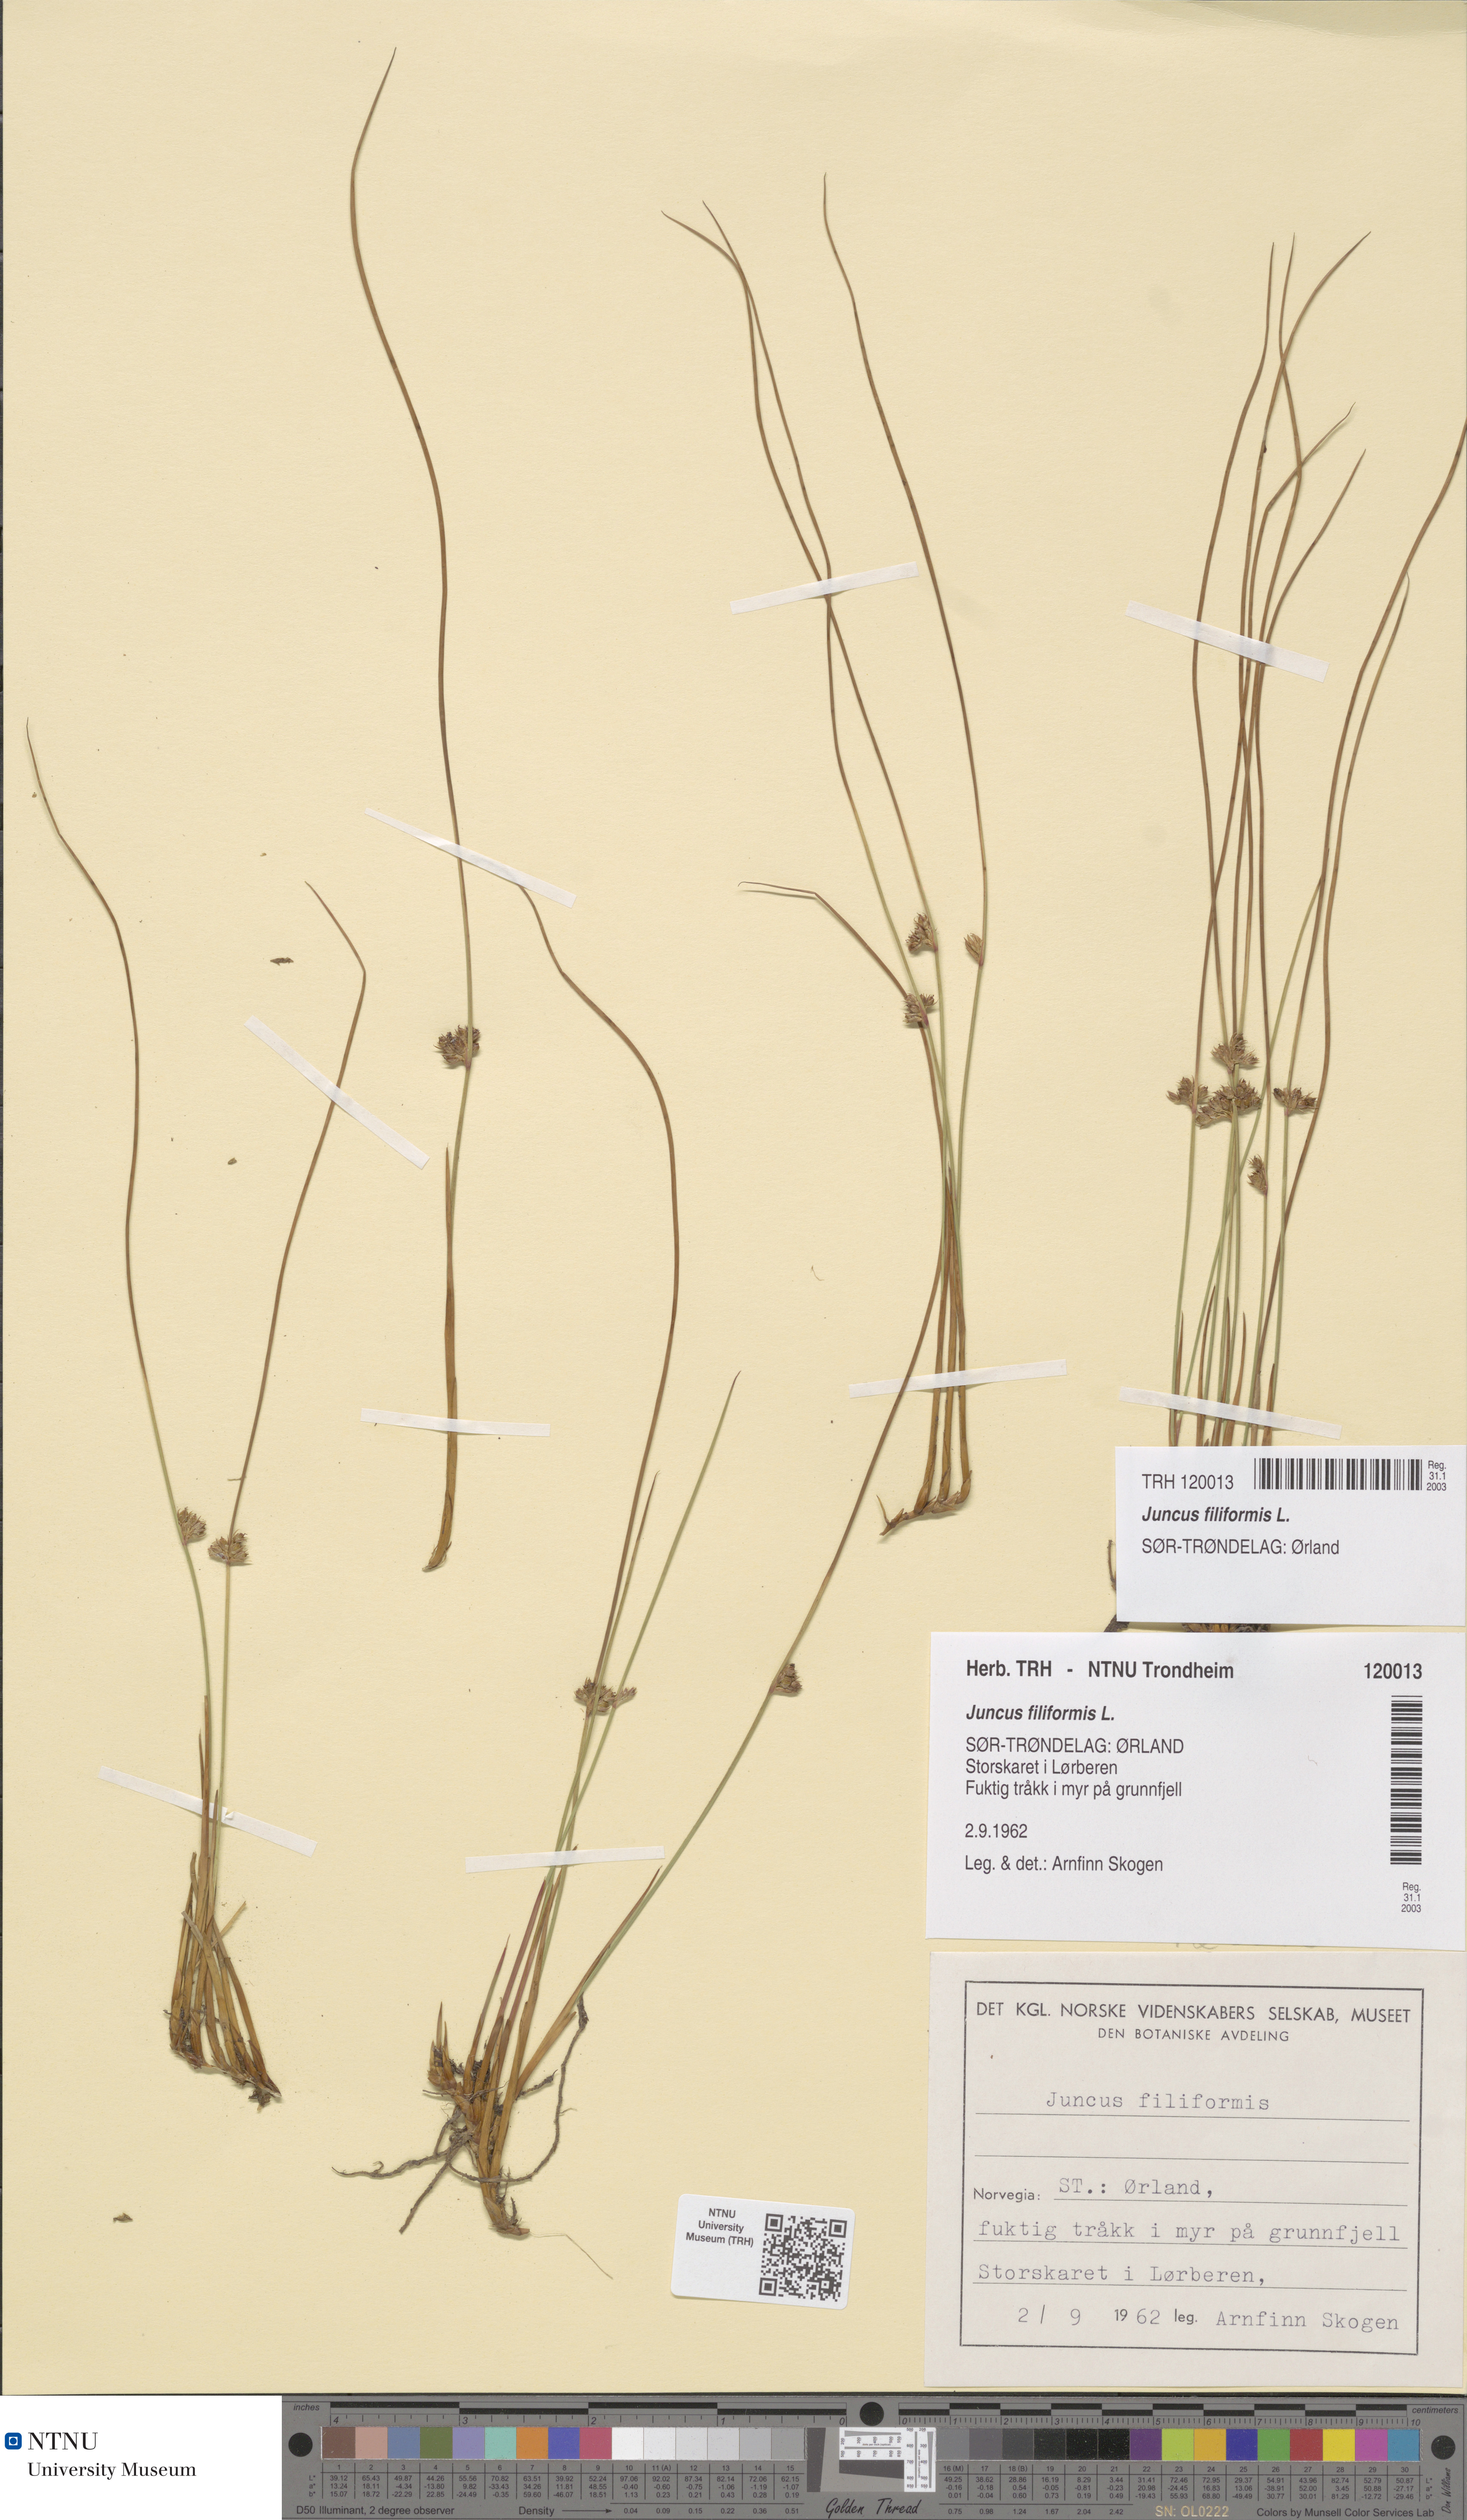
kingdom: Plantae
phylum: Tracheophyta
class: Liliopsida
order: Poales
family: Juncaceae
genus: Juncus
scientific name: Juncus filiformis
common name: Thread rush
